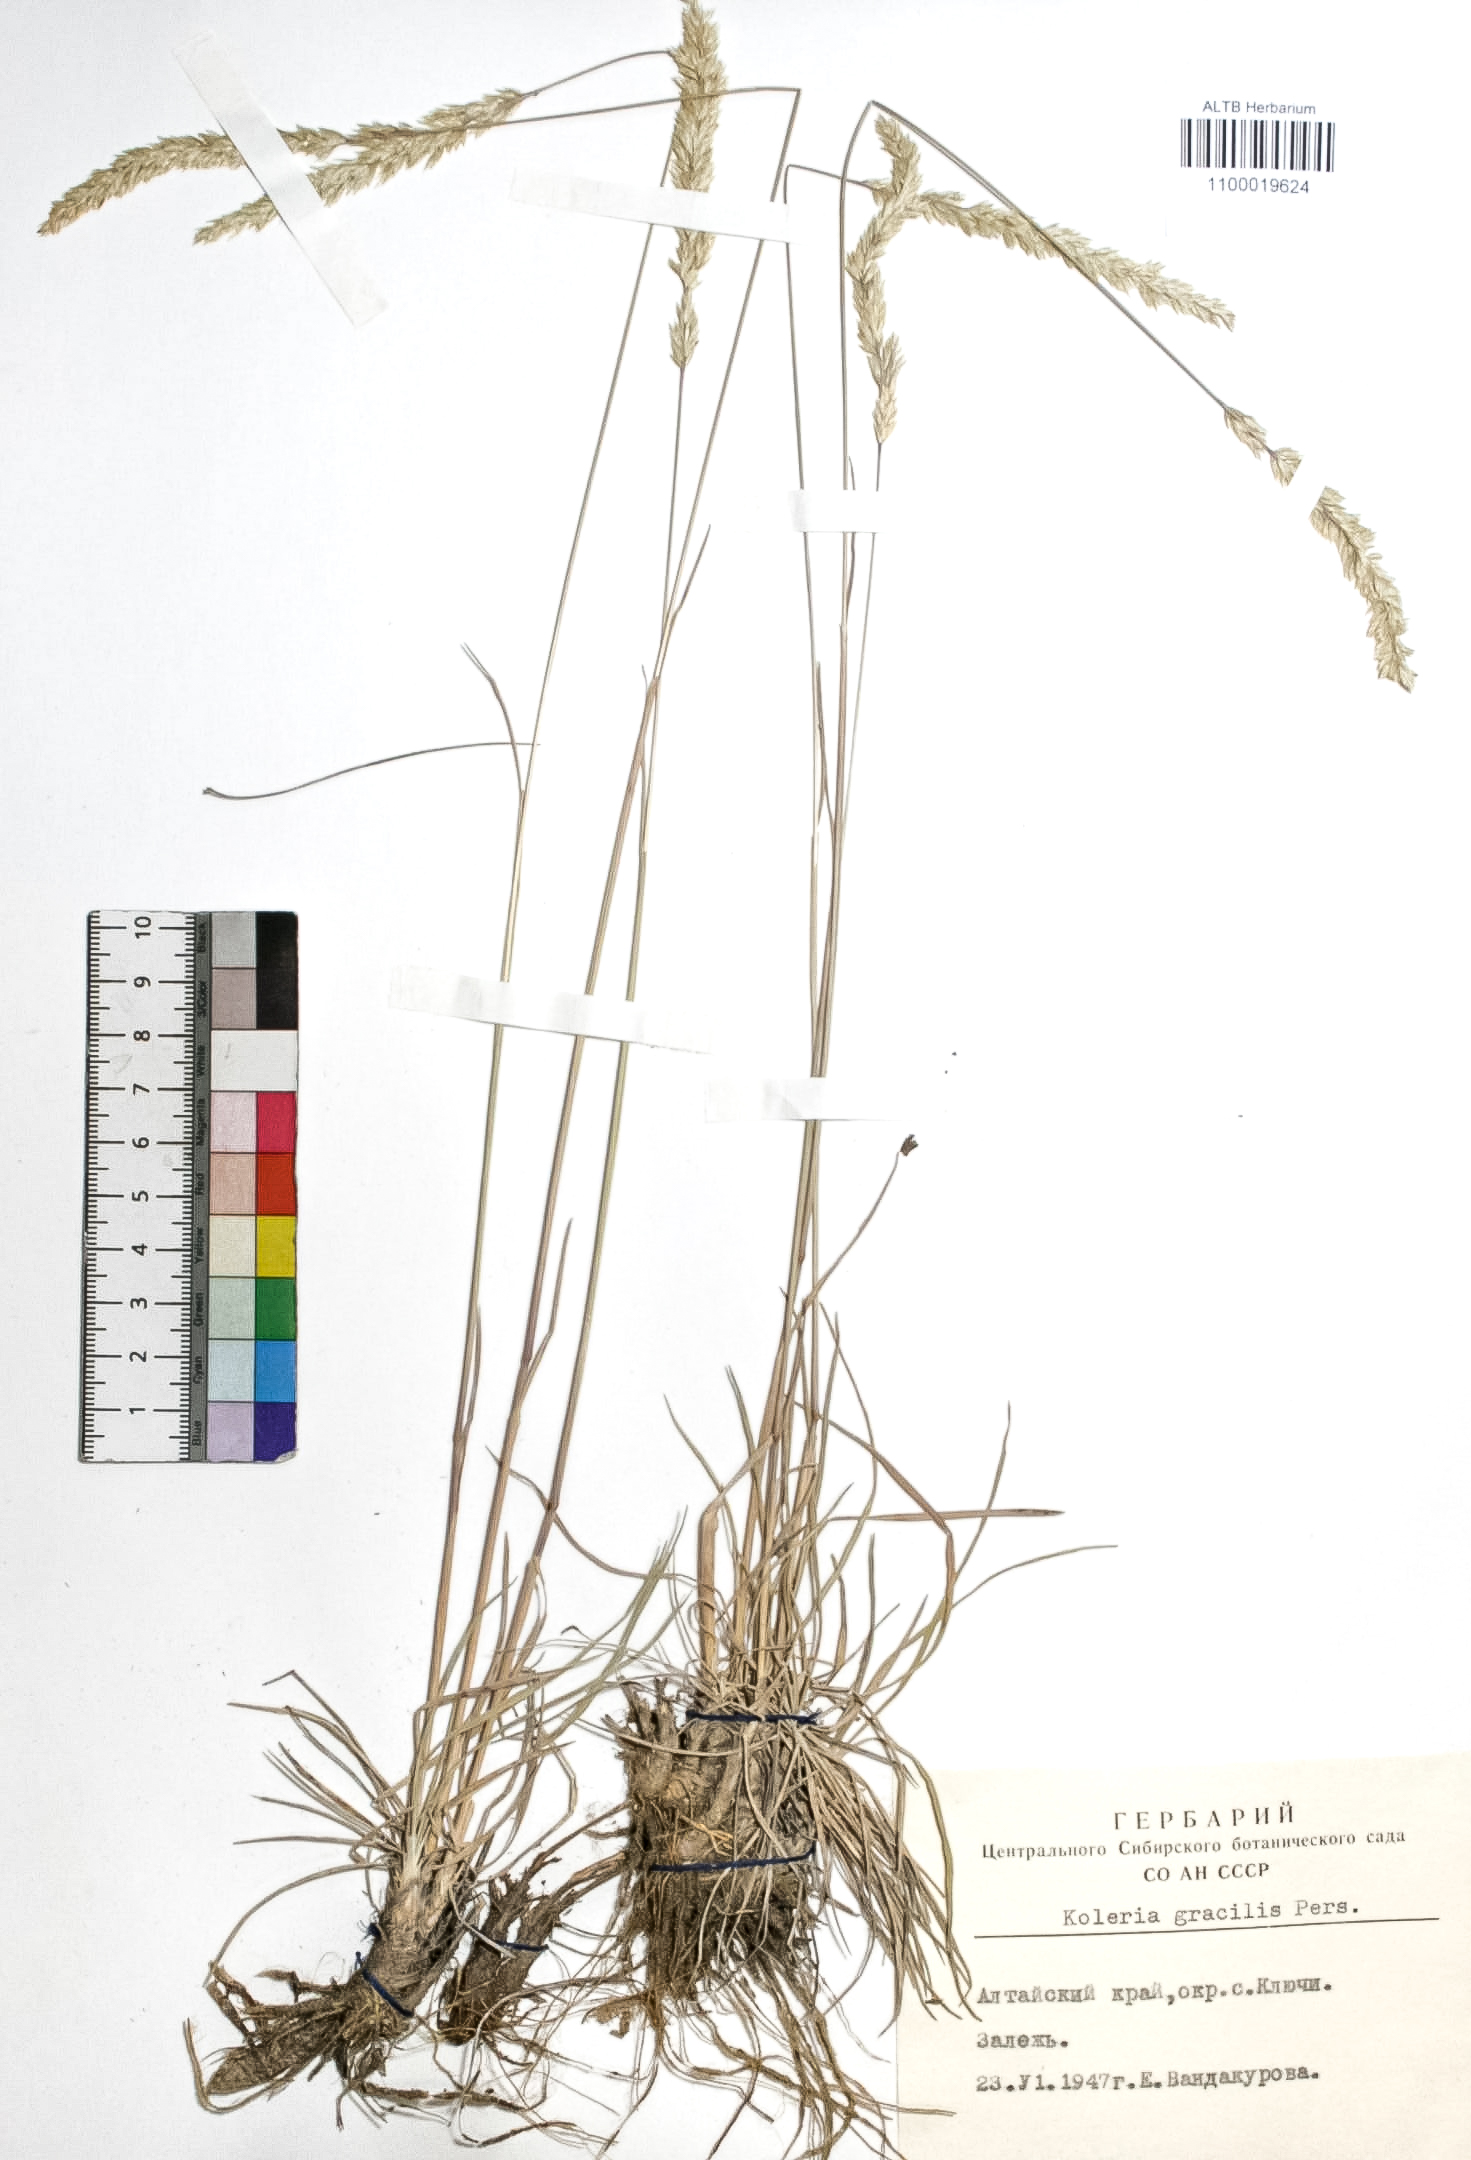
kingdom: Plantae
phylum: Tracheophyta
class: Liliopsida
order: Poales
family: Poaceae
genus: Koeleria
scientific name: Koeleria macrantha
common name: Crested hair-grass
